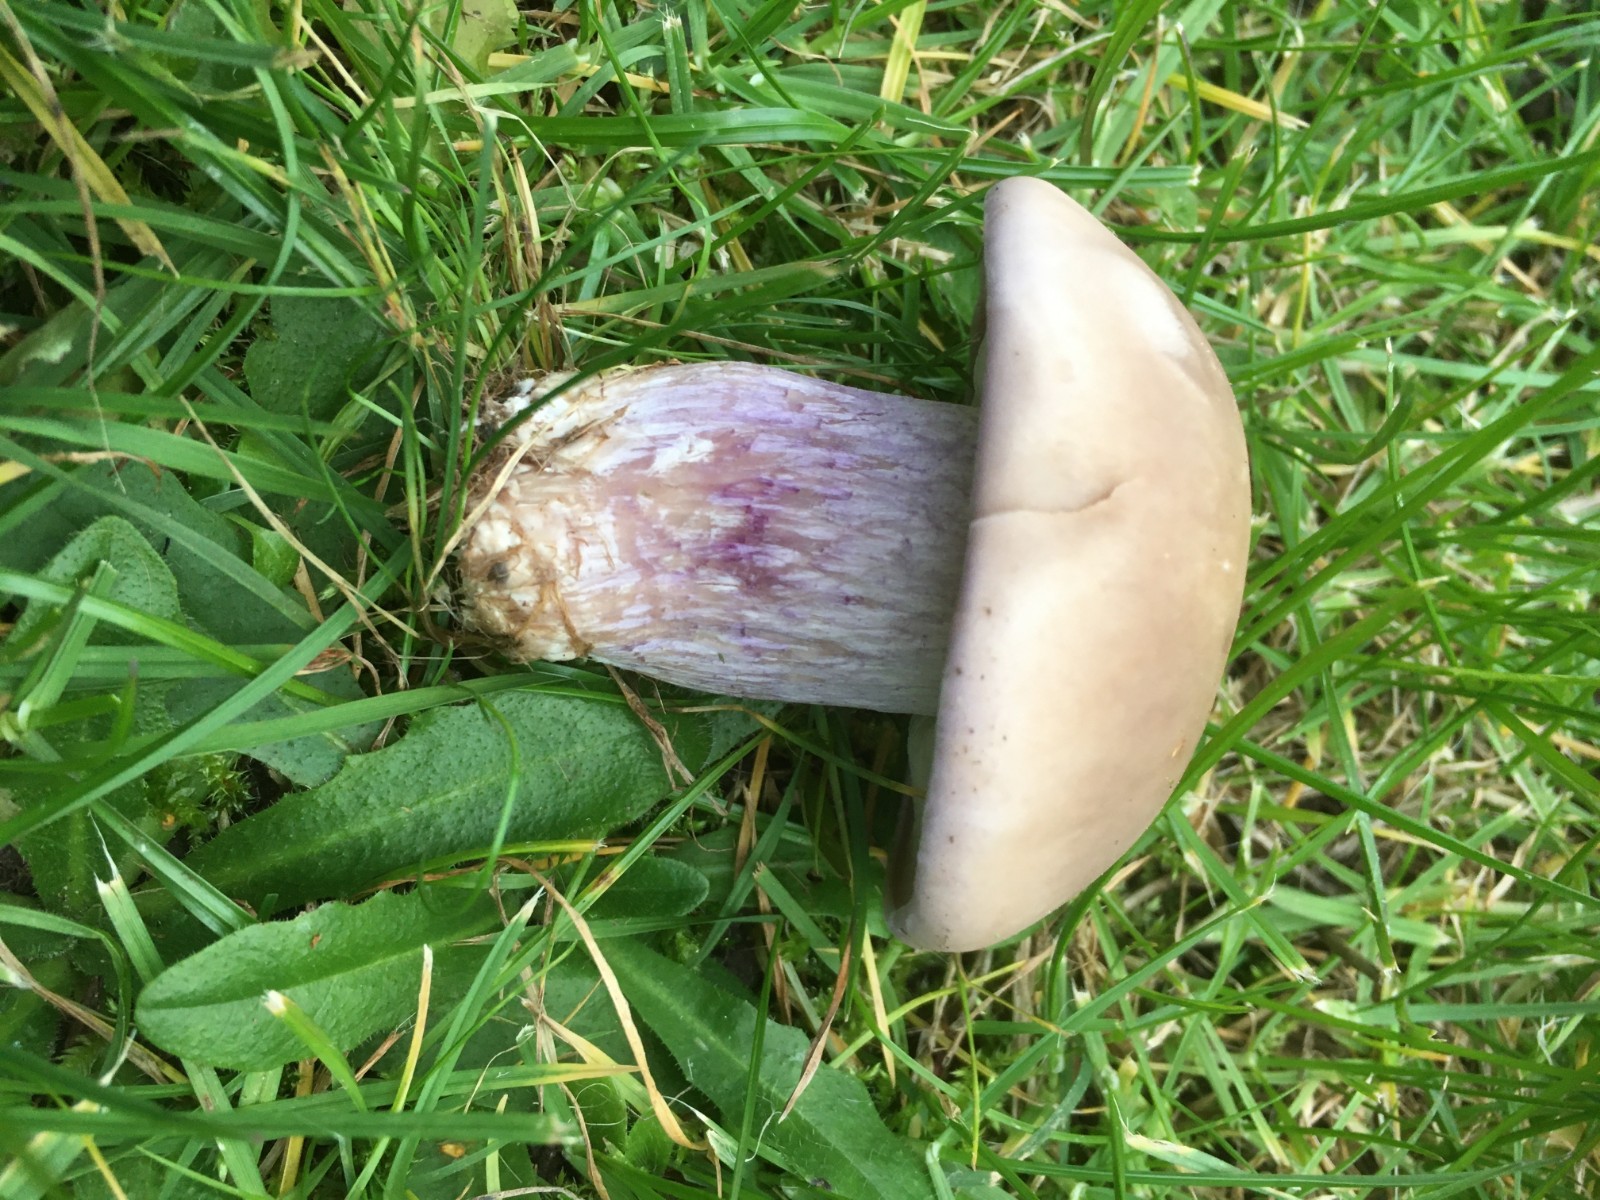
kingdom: Fungi
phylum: Basidiomycota
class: Agaricomycetes
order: Agaricales
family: Tricholomataceae
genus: Lepista
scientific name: Lepista personata
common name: bleg hekseringshat
